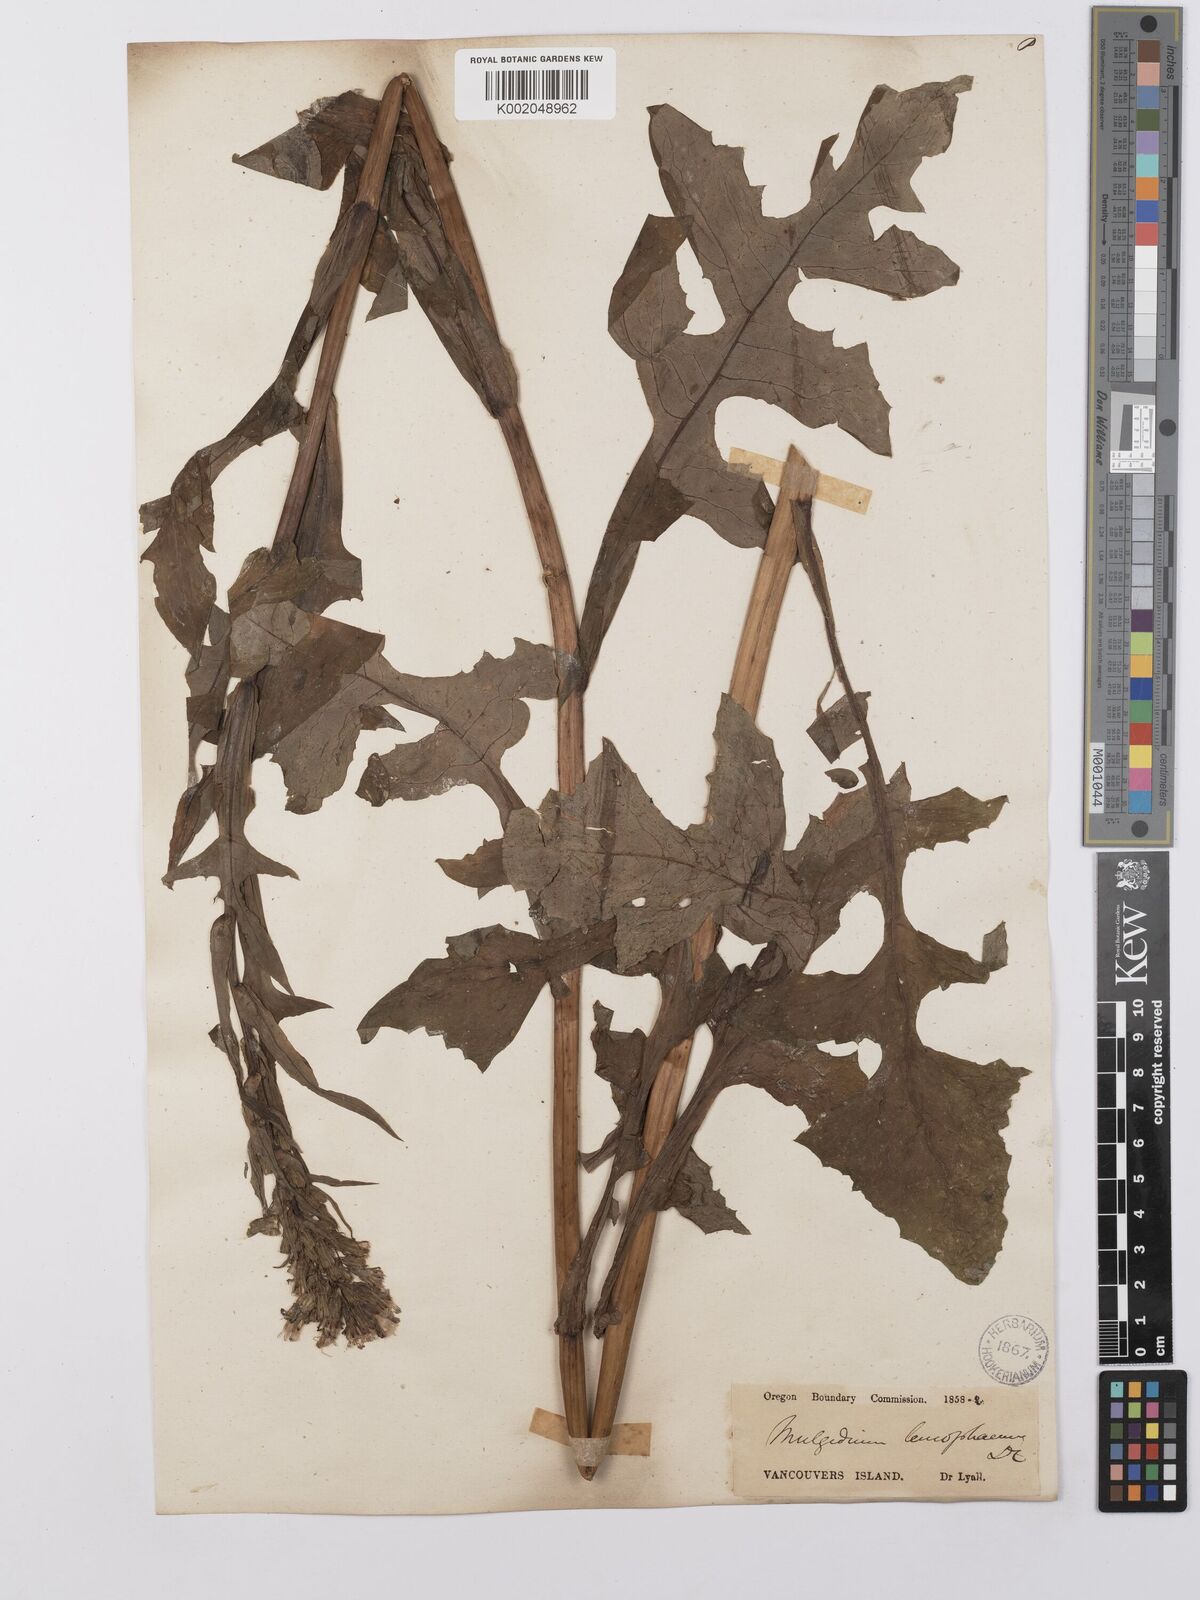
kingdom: Plantae
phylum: Tracheophyta
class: Magnoliopsida
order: Asterales
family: Asteraceae
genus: Lactuca
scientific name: Lactuca
